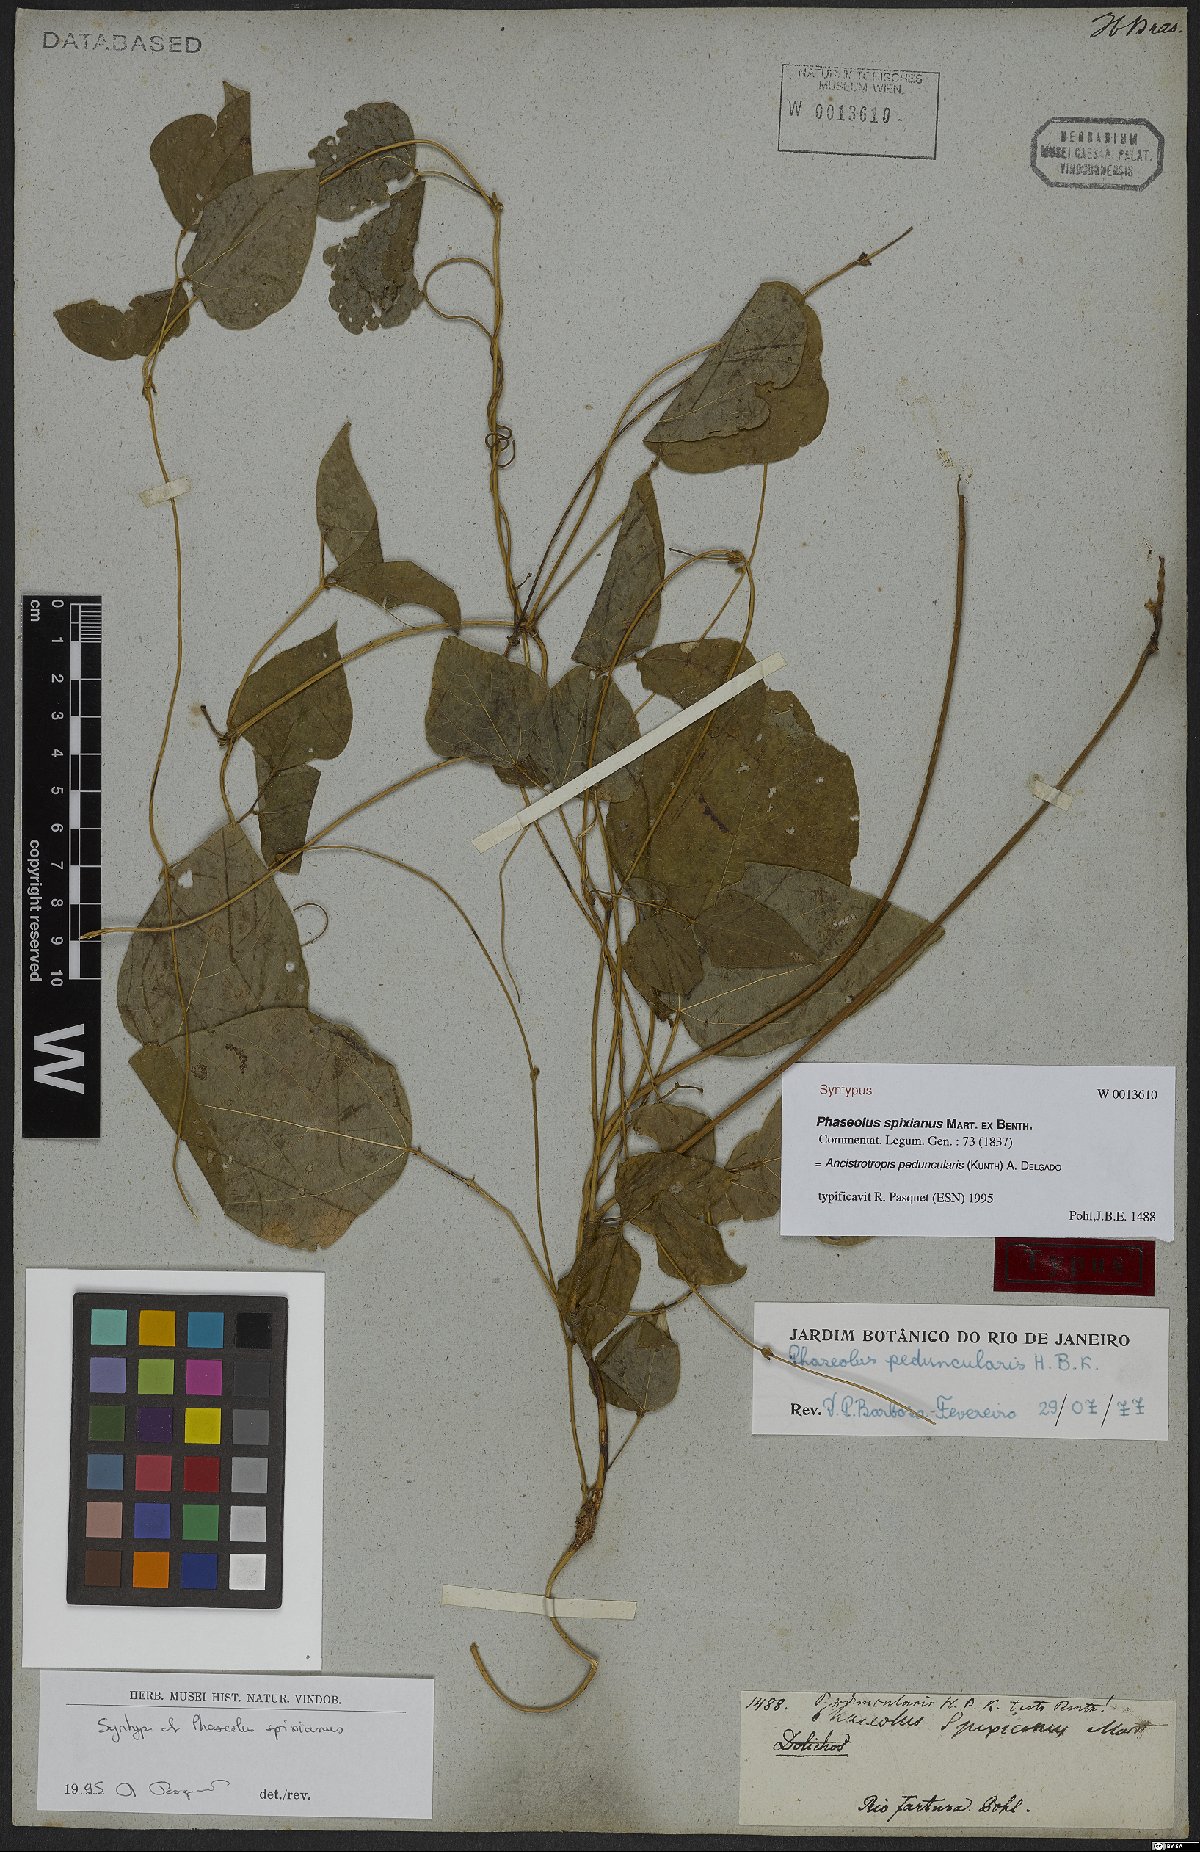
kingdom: Plantae
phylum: Tracheophyta
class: Magnoliopsida
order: Fabales
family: Fabaceae
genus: Ancistrotropis
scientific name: Ancistrotropis peduncularis
